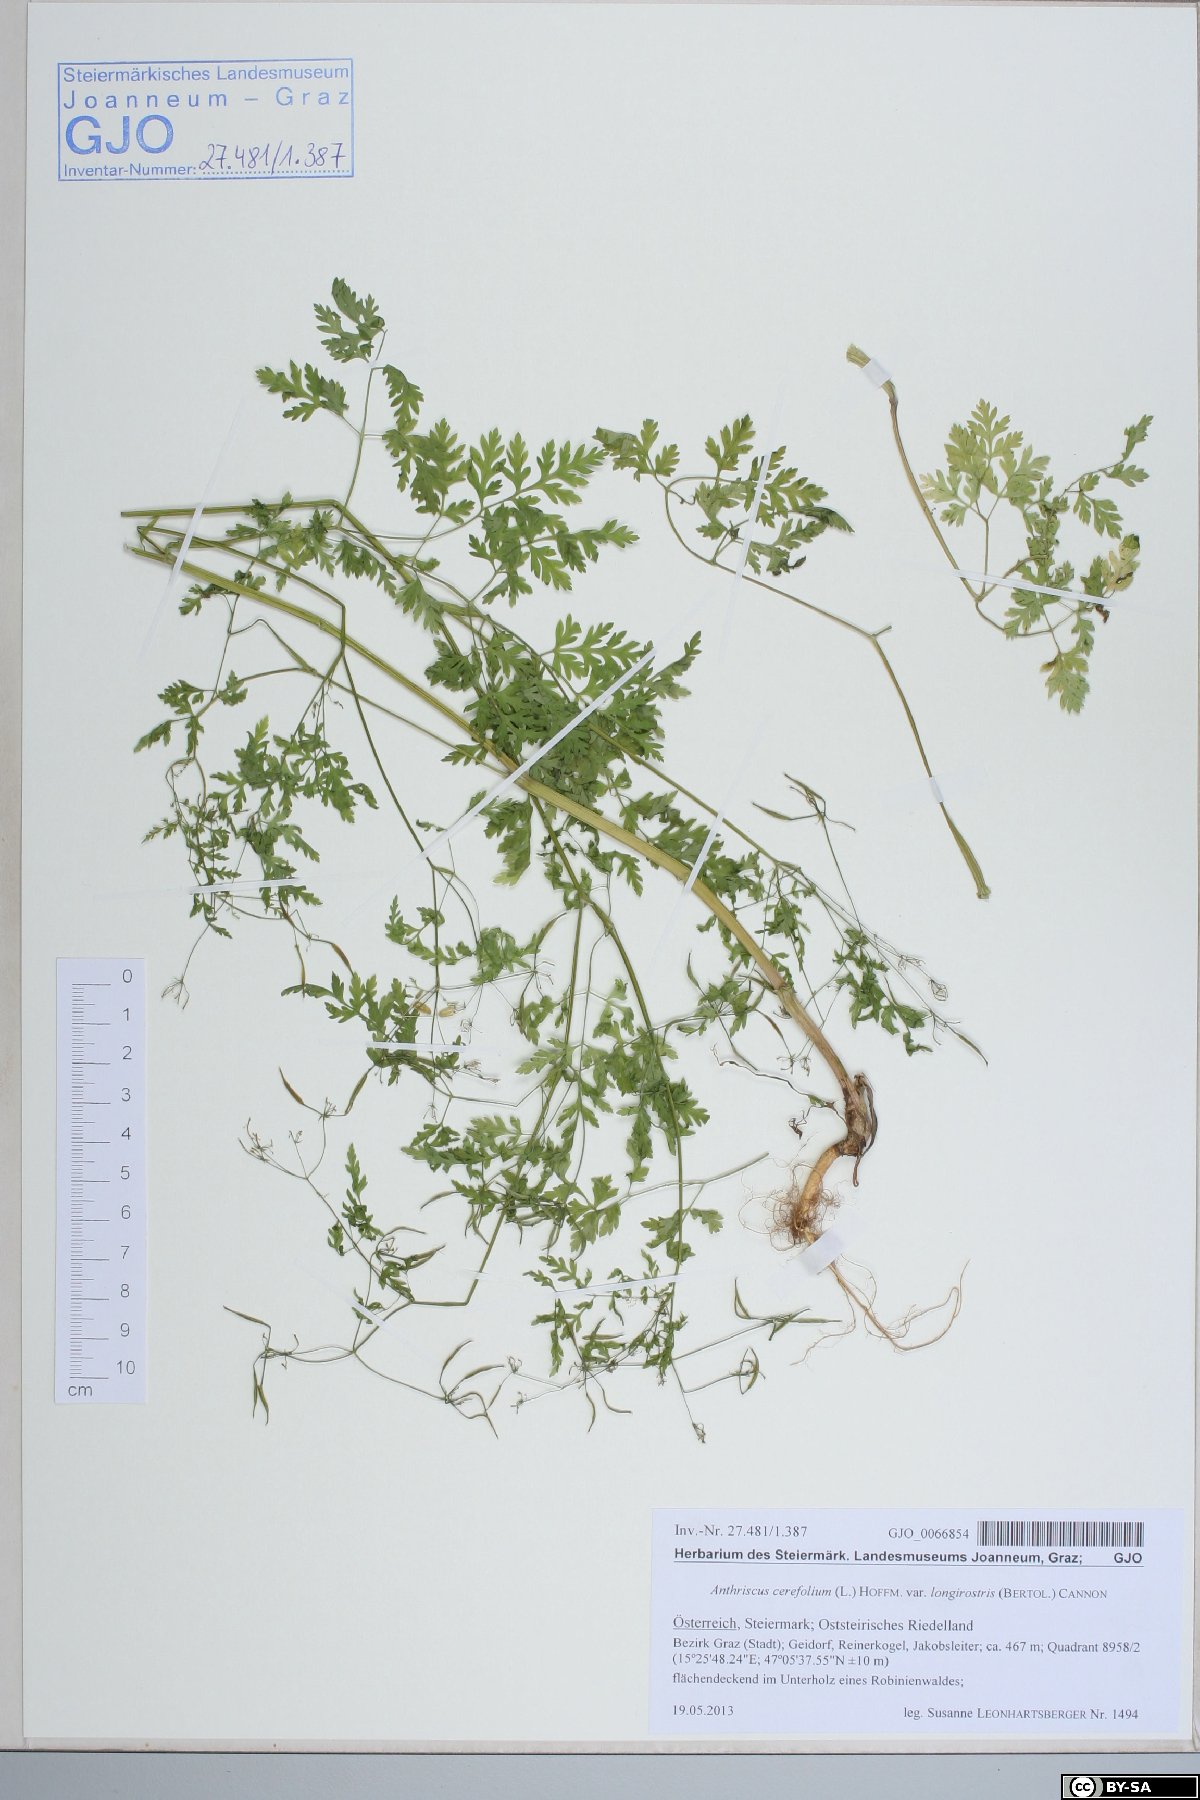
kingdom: Plantae
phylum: Tracheophyta
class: Magnoliopsida
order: Apiales
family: Apiaceae
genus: Anthriscus
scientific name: Anthriscus cerefolium
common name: Garden chervil
